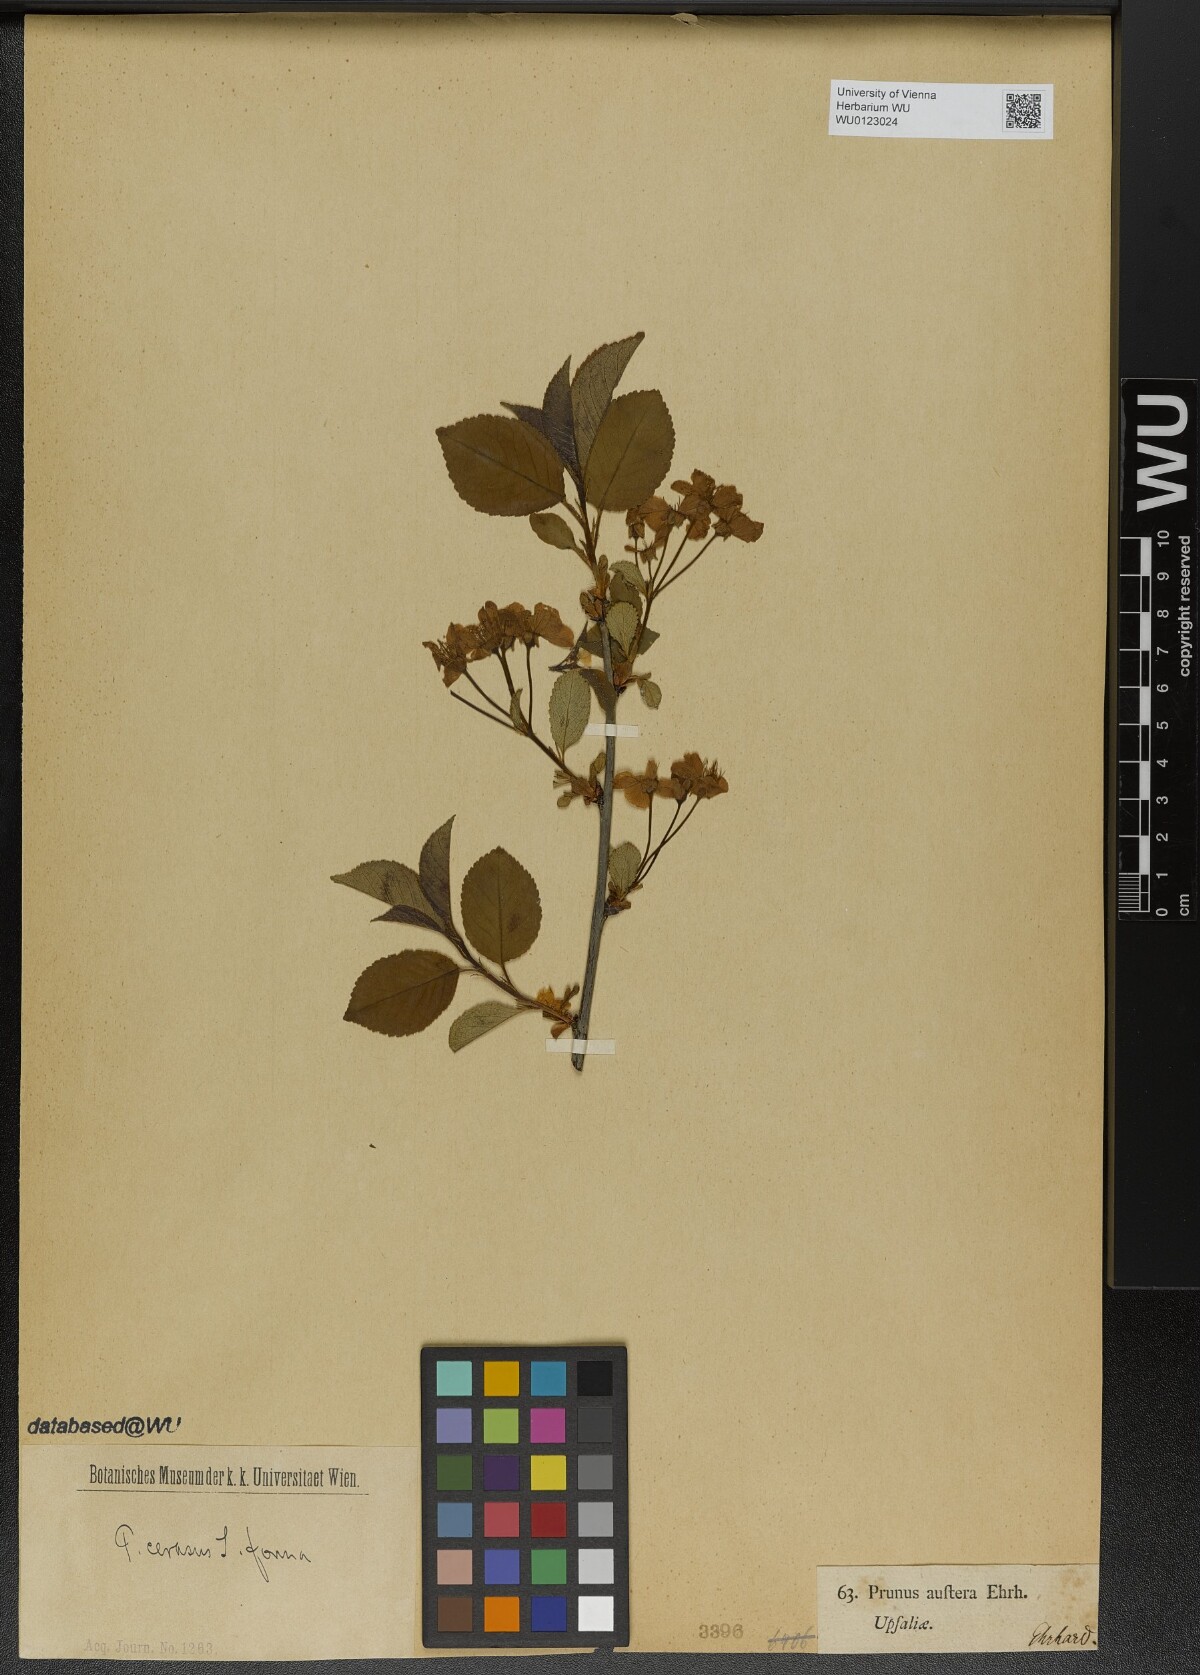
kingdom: Plantae
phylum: Tracheophyta
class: Magnoliopsida
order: Rosales
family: Rosaceae
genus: Prunus
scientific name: Prunus cerasus
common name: Morello cherry
